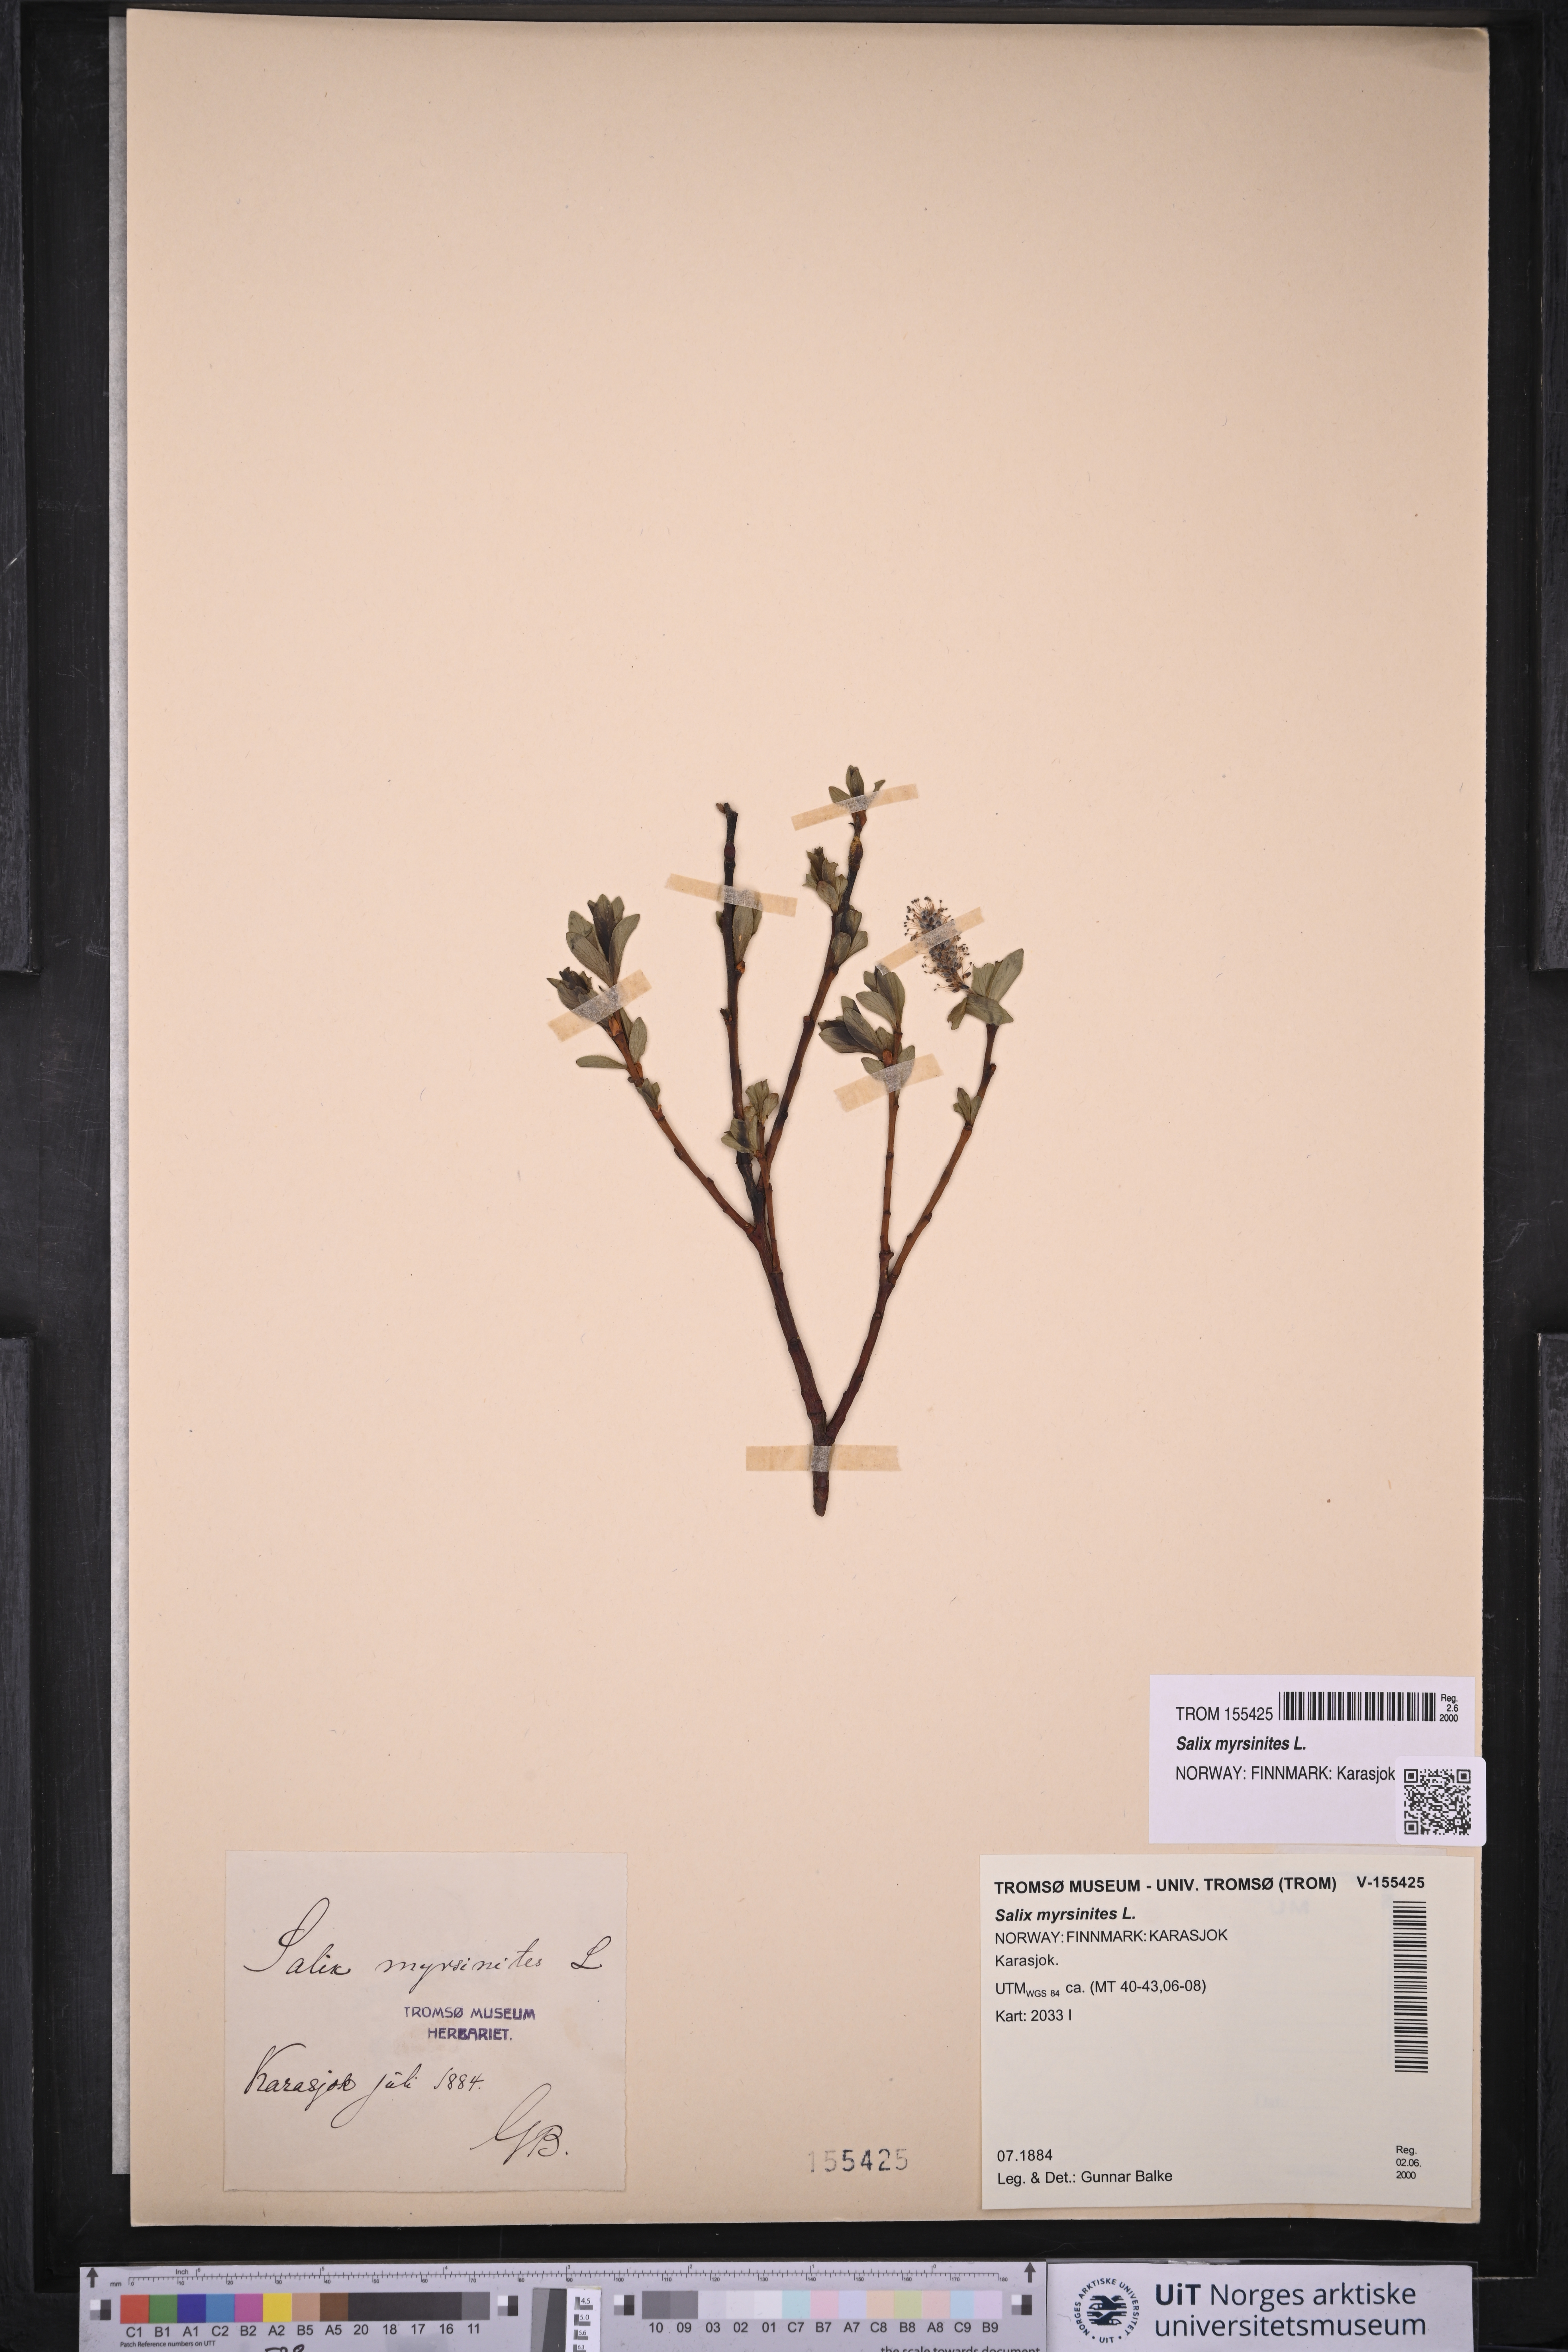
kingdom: Plantae
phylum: Tracheophyta
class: Magnoliopsida
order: Malpighiales
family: Salicaceae
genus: Salix
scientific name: Salix myrsinites
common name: Myrtle willow
